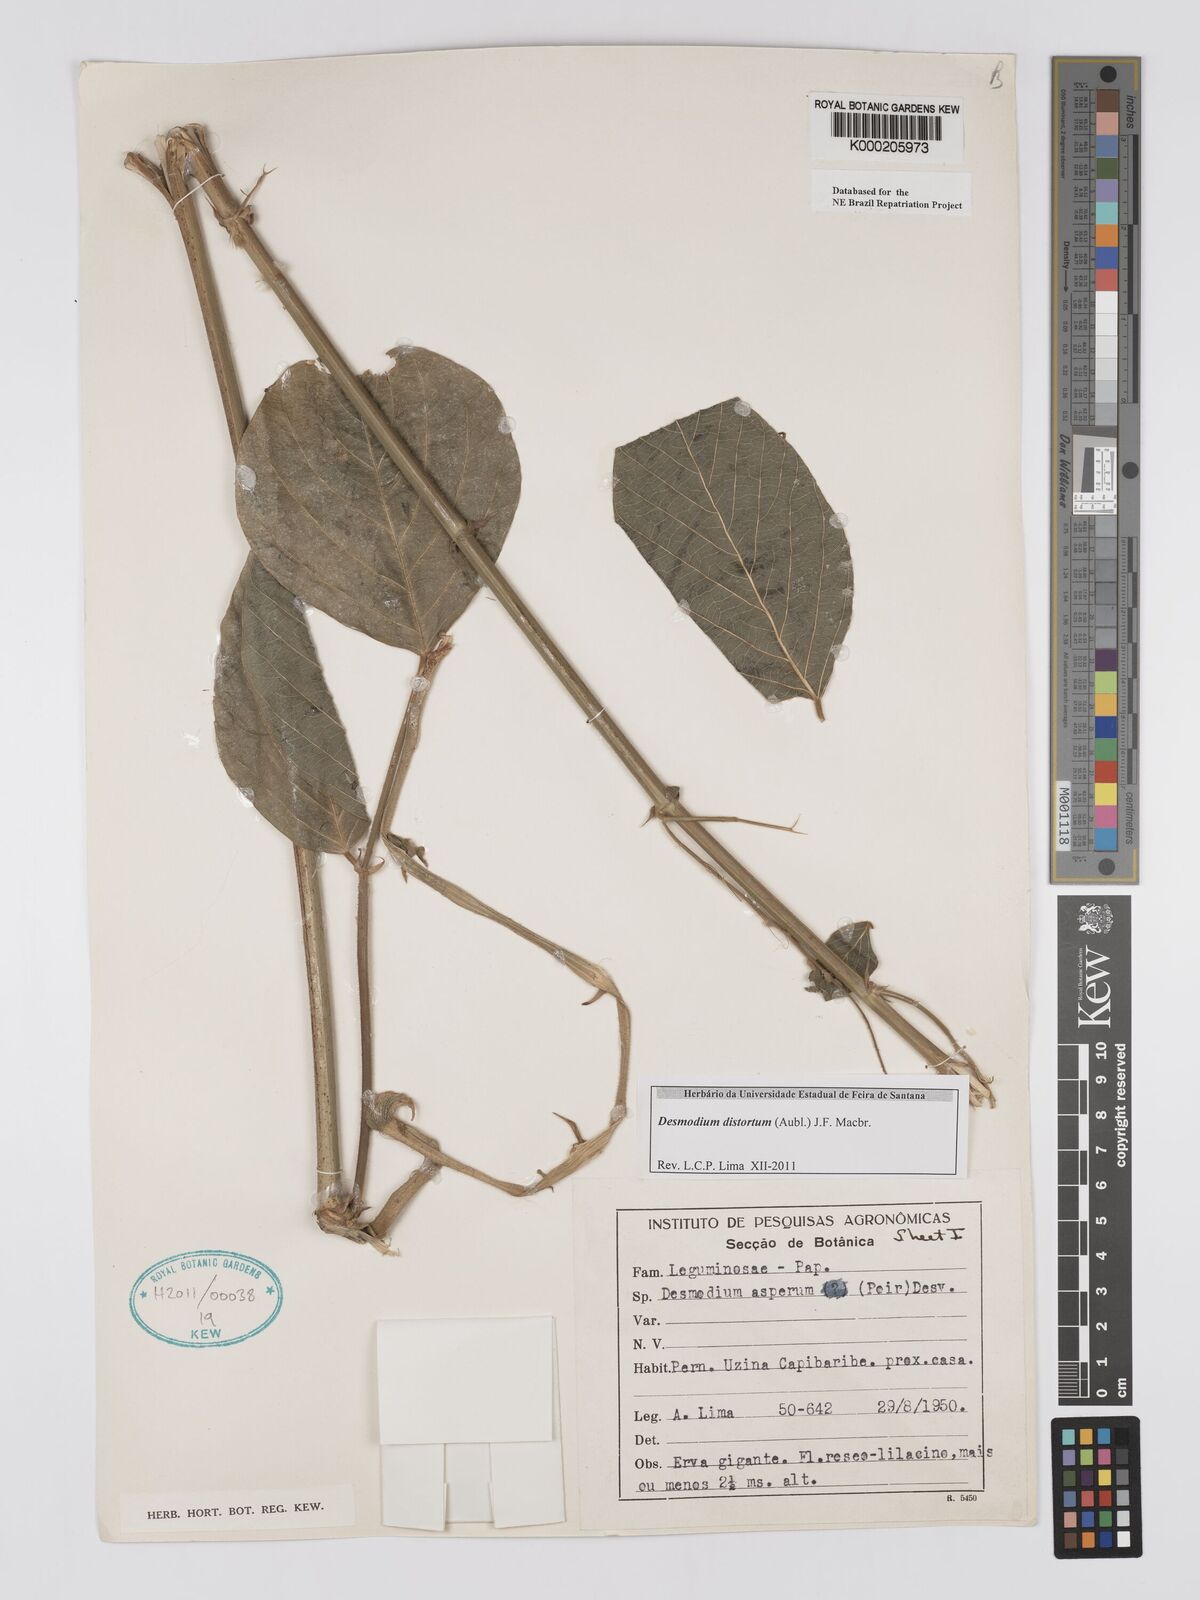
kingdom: Plantae
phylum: Tracheophyta
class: Magnoliopsida
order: Fabales
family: Fabaceae
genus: Desmodium
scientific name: Desmodium distortum
